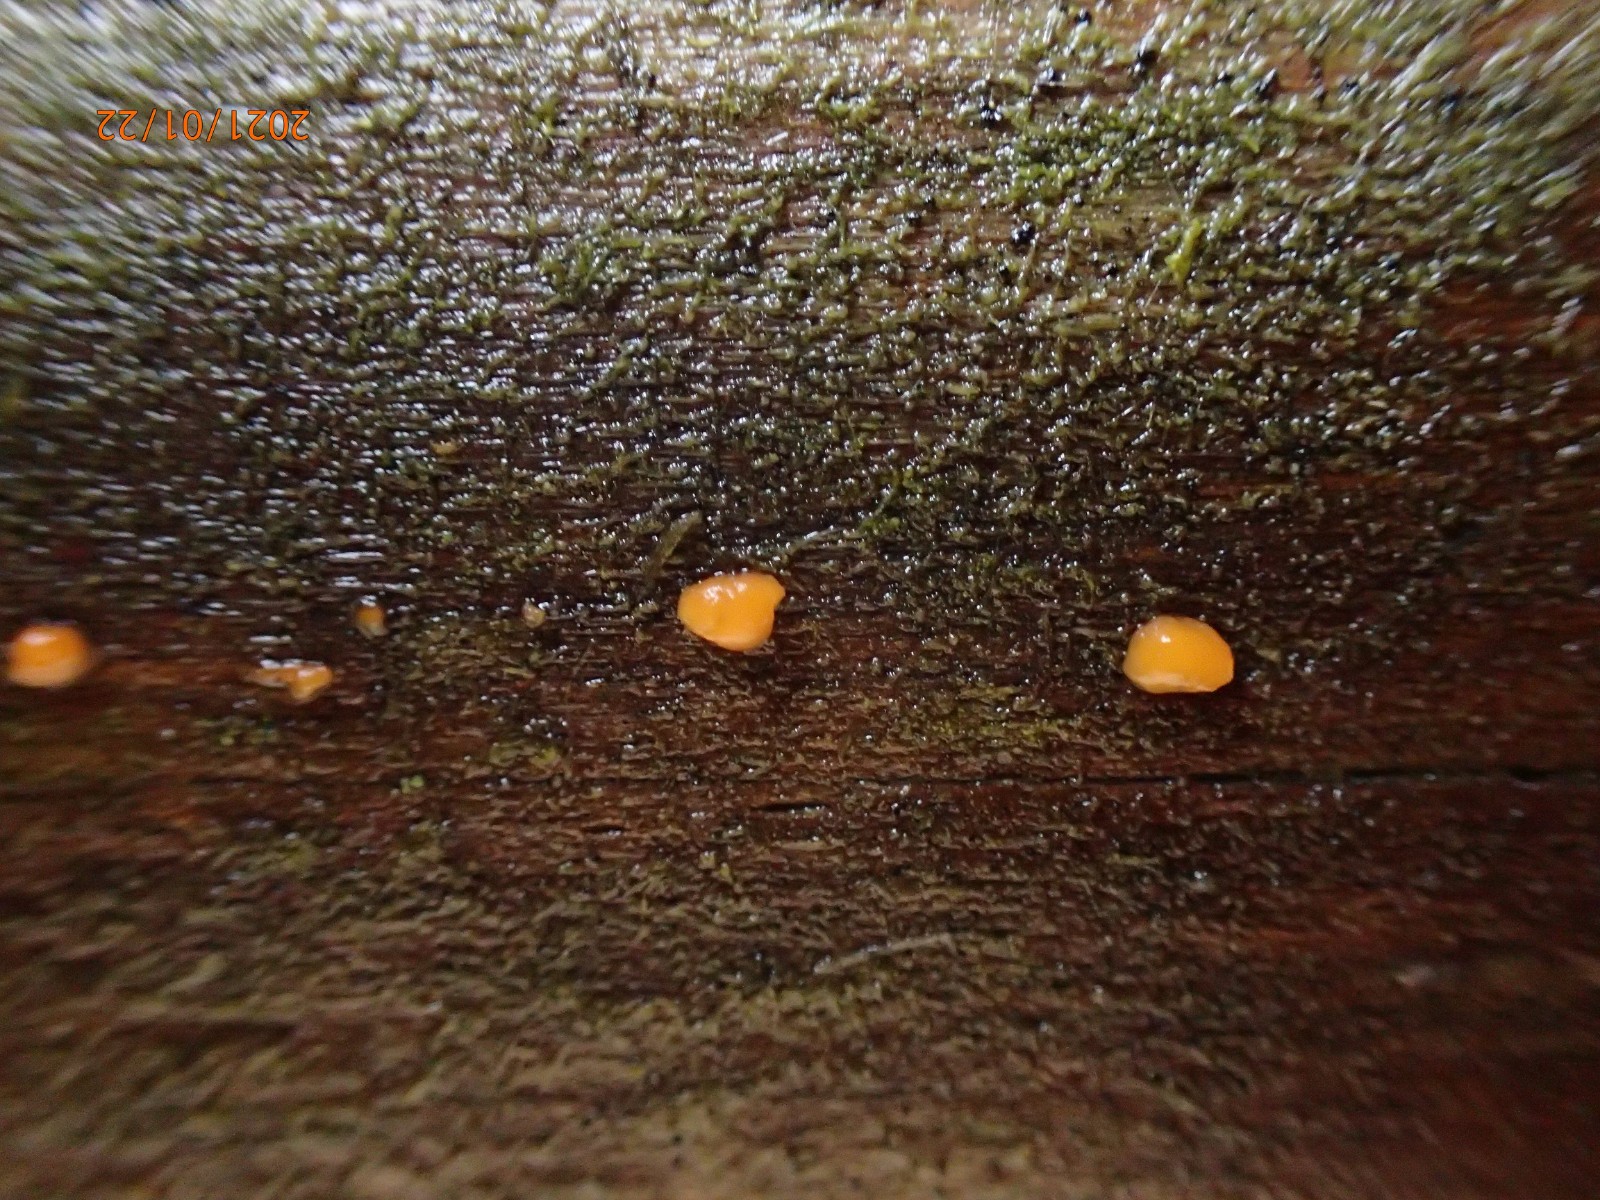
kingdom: Fungi
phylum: Basidiomycota
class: Dacrymycetes
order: Dacrymycetales
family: Dacrymycetaceae
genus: Dacrymyces
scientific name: Dacrymyces stillatus
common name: almindelig tåresvamp
